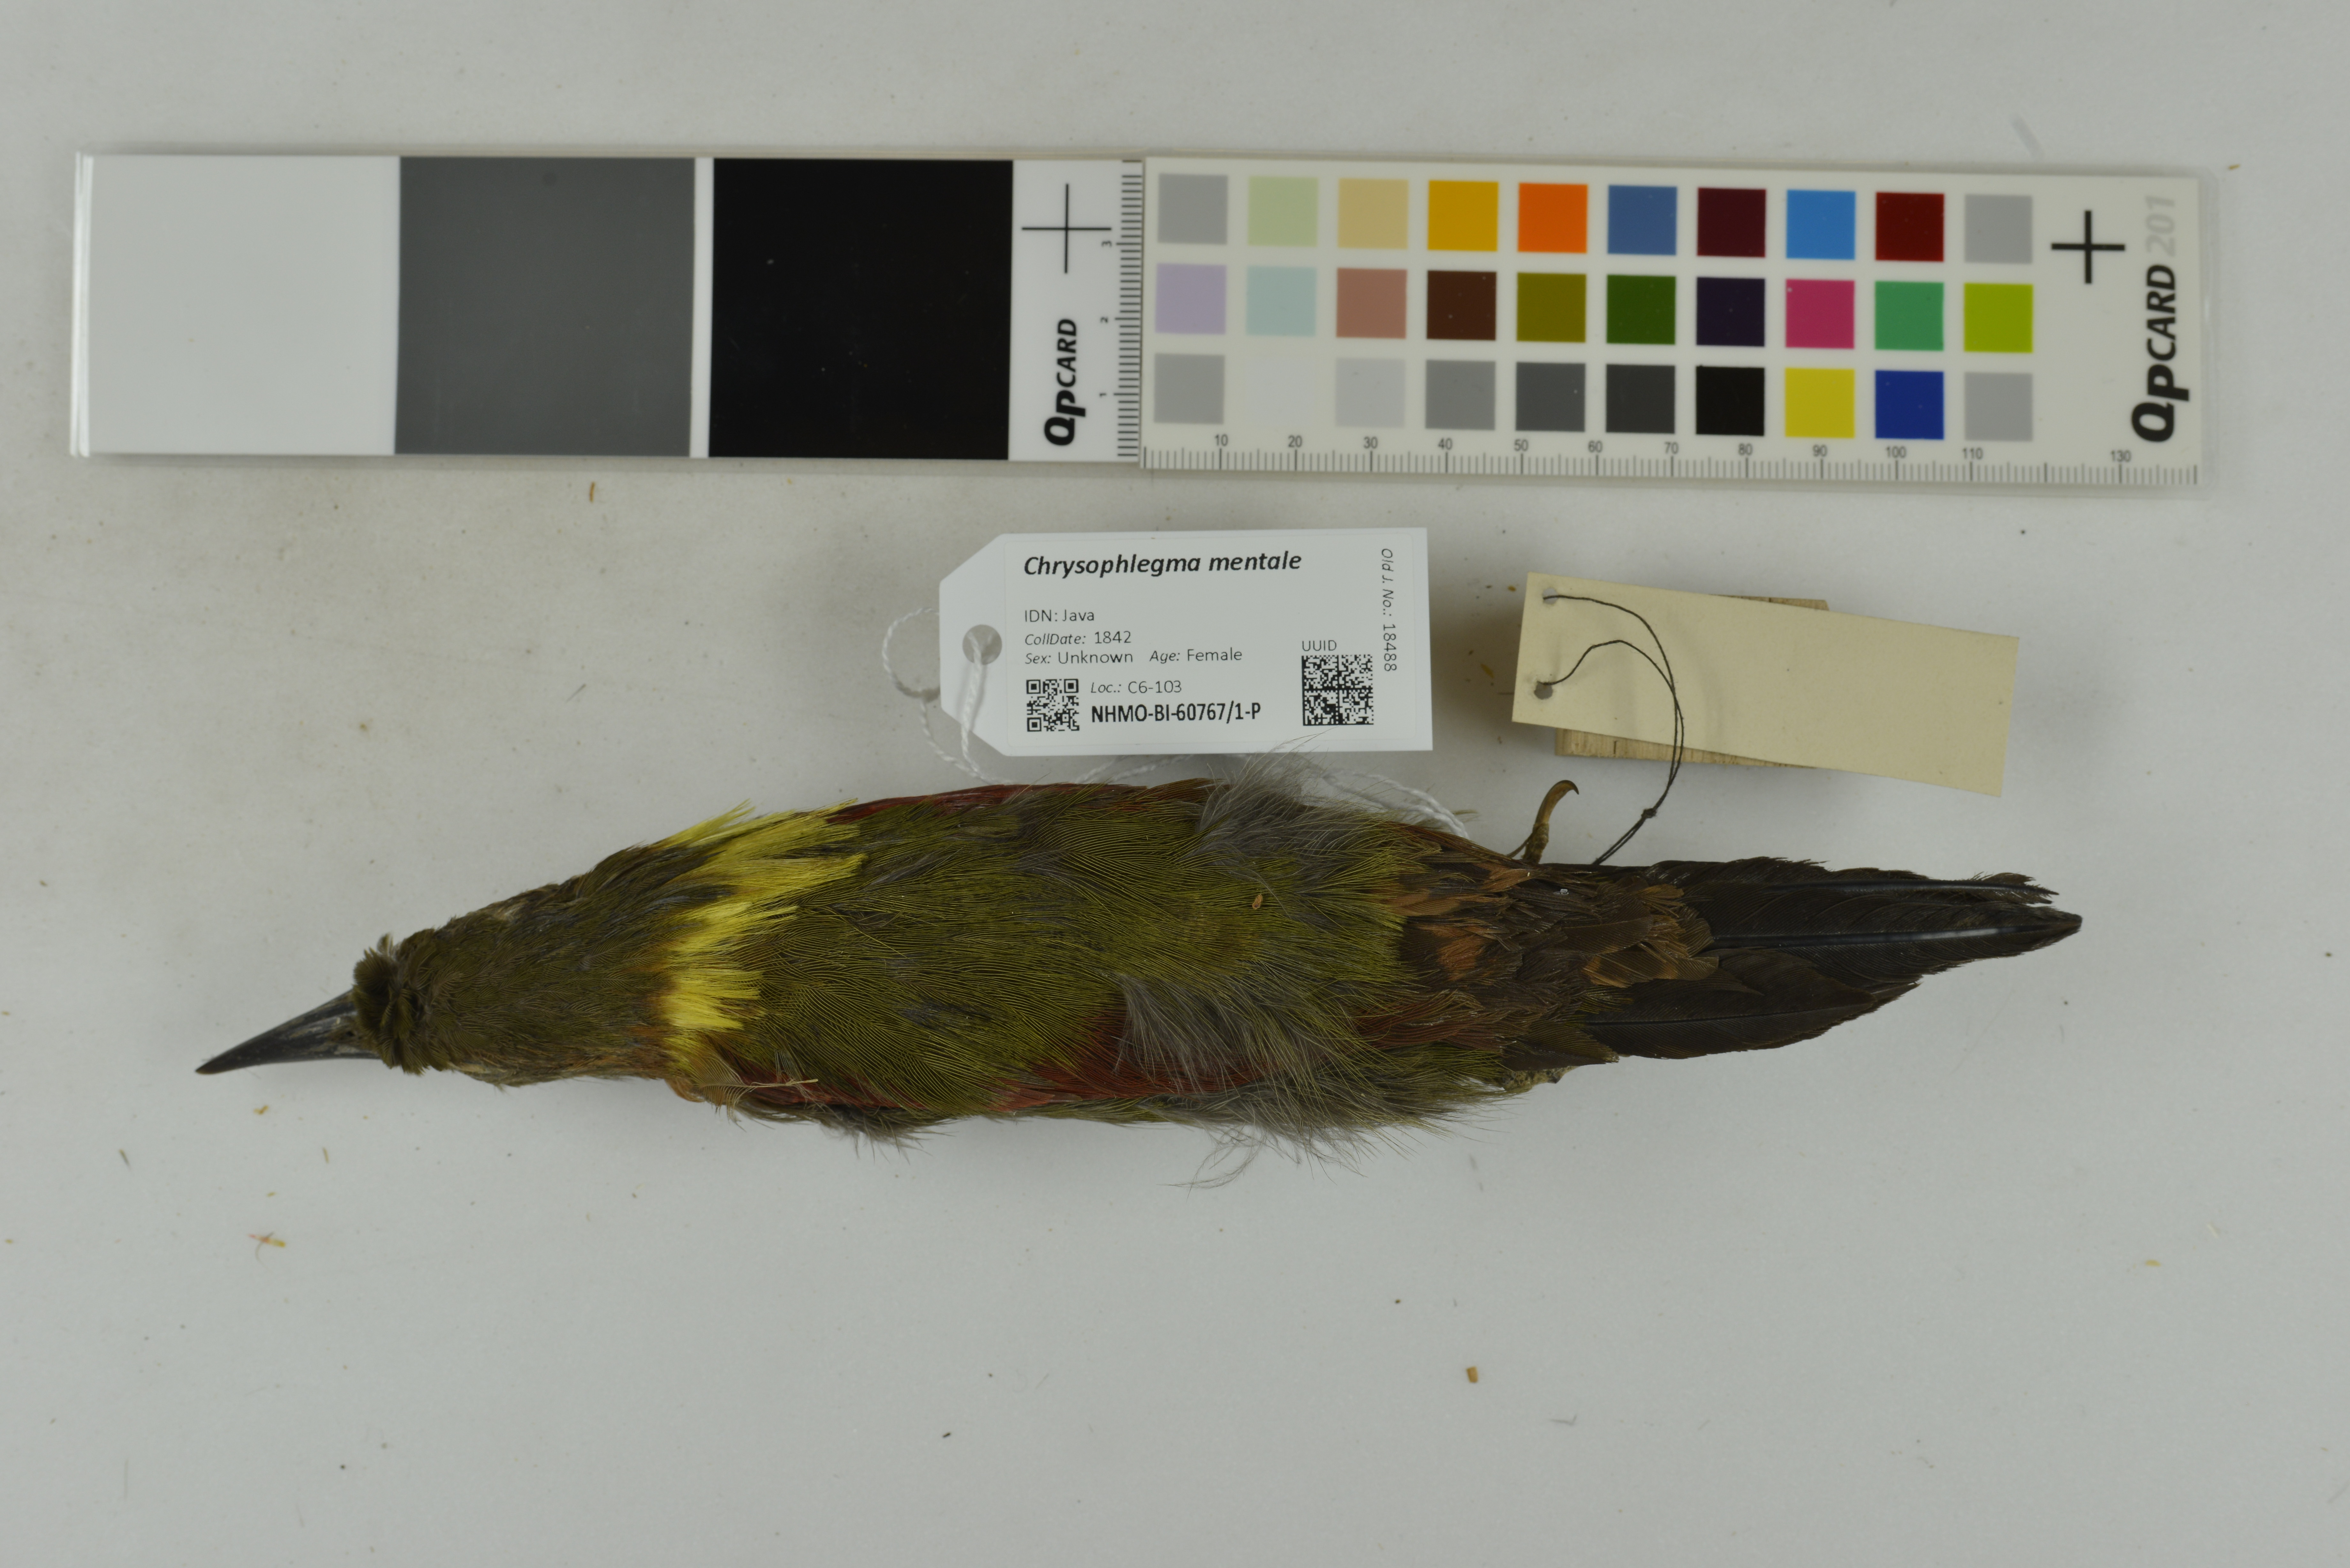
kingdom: Animalia
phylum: Chordata
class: Aves
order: Piciformes
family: Picidae
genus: Chrysophlegma
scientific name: Chrysophlegma mentale
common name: Checker-throated woodpecker
